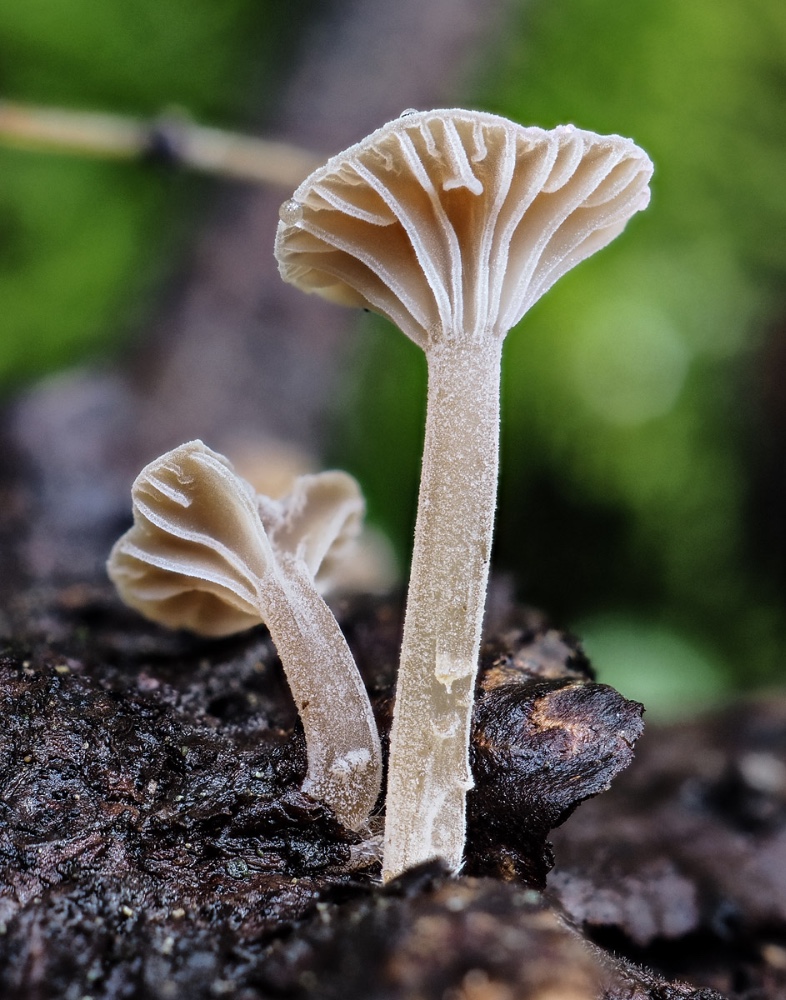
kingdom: Fungi
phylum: Basidiomycota
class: Agaricomycetes
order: Agaricales
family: Porotheleaceae
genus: Phloeomana
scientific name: Phloeomana clavata
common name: brunbladet huesvamp
